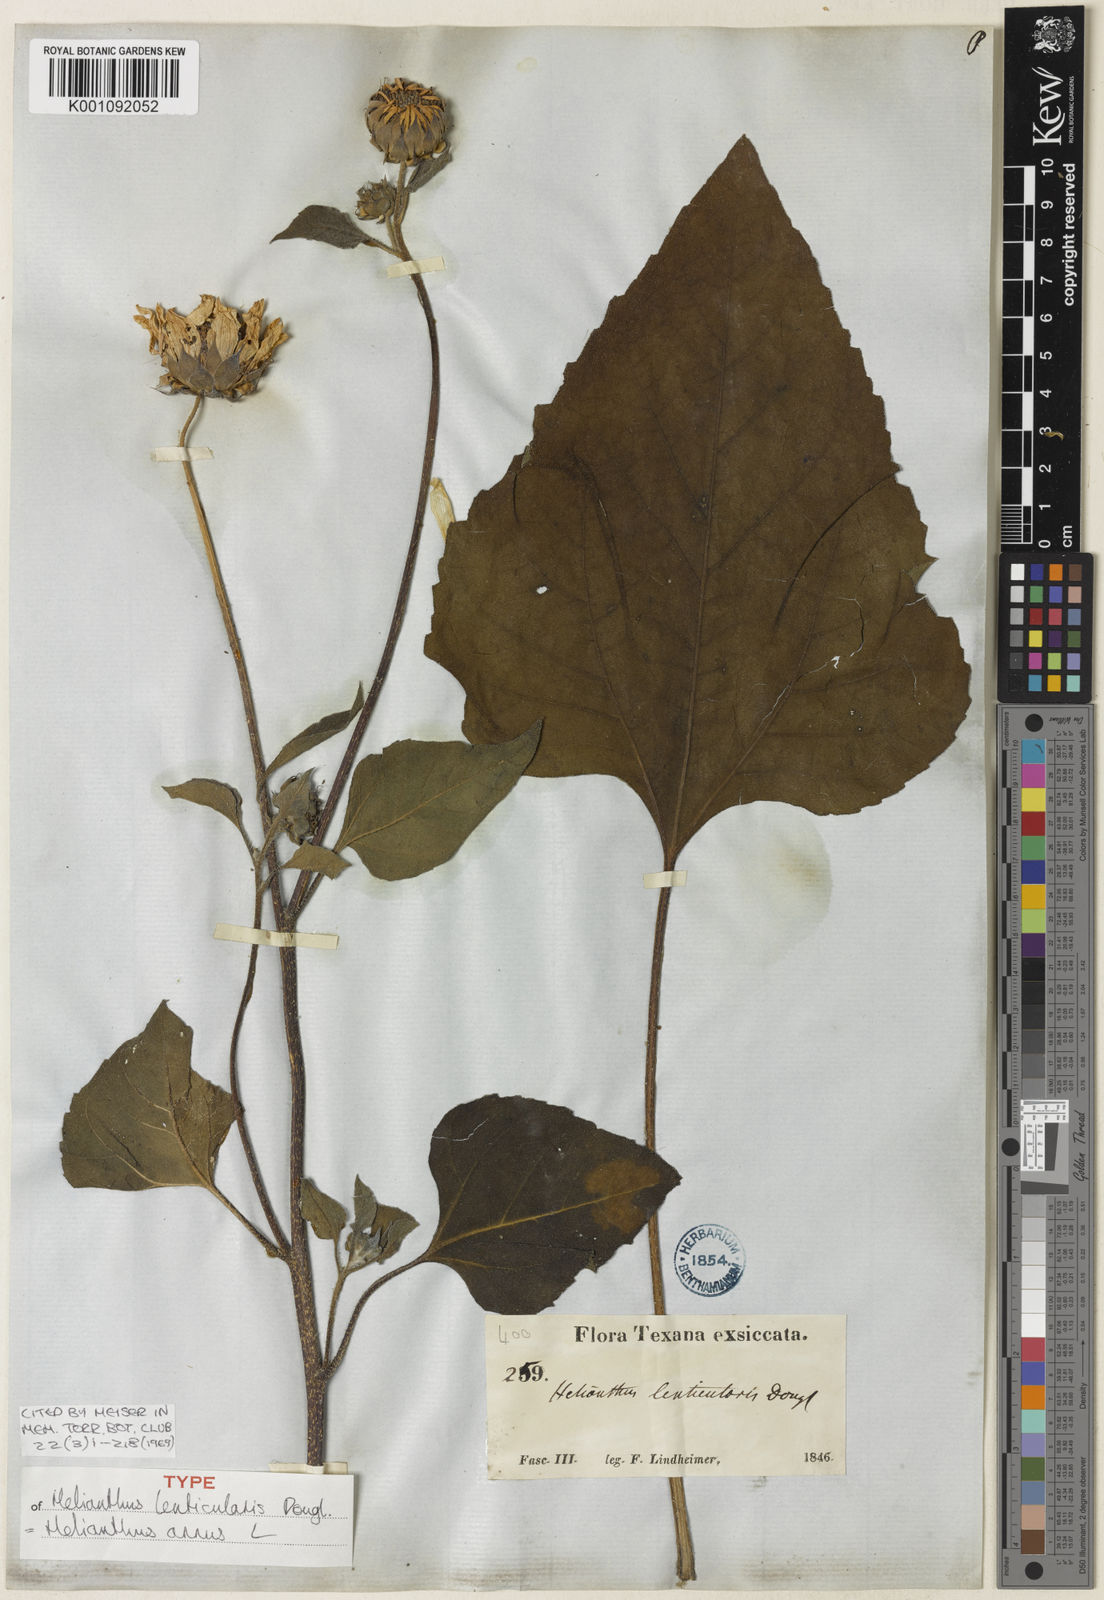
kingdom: Plantae
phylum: Tracheophyta
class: Magnoliopsida
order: Asterales
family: Asteraceae
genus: Helianthus
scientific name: Helianthus annuus
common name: Sunflower
